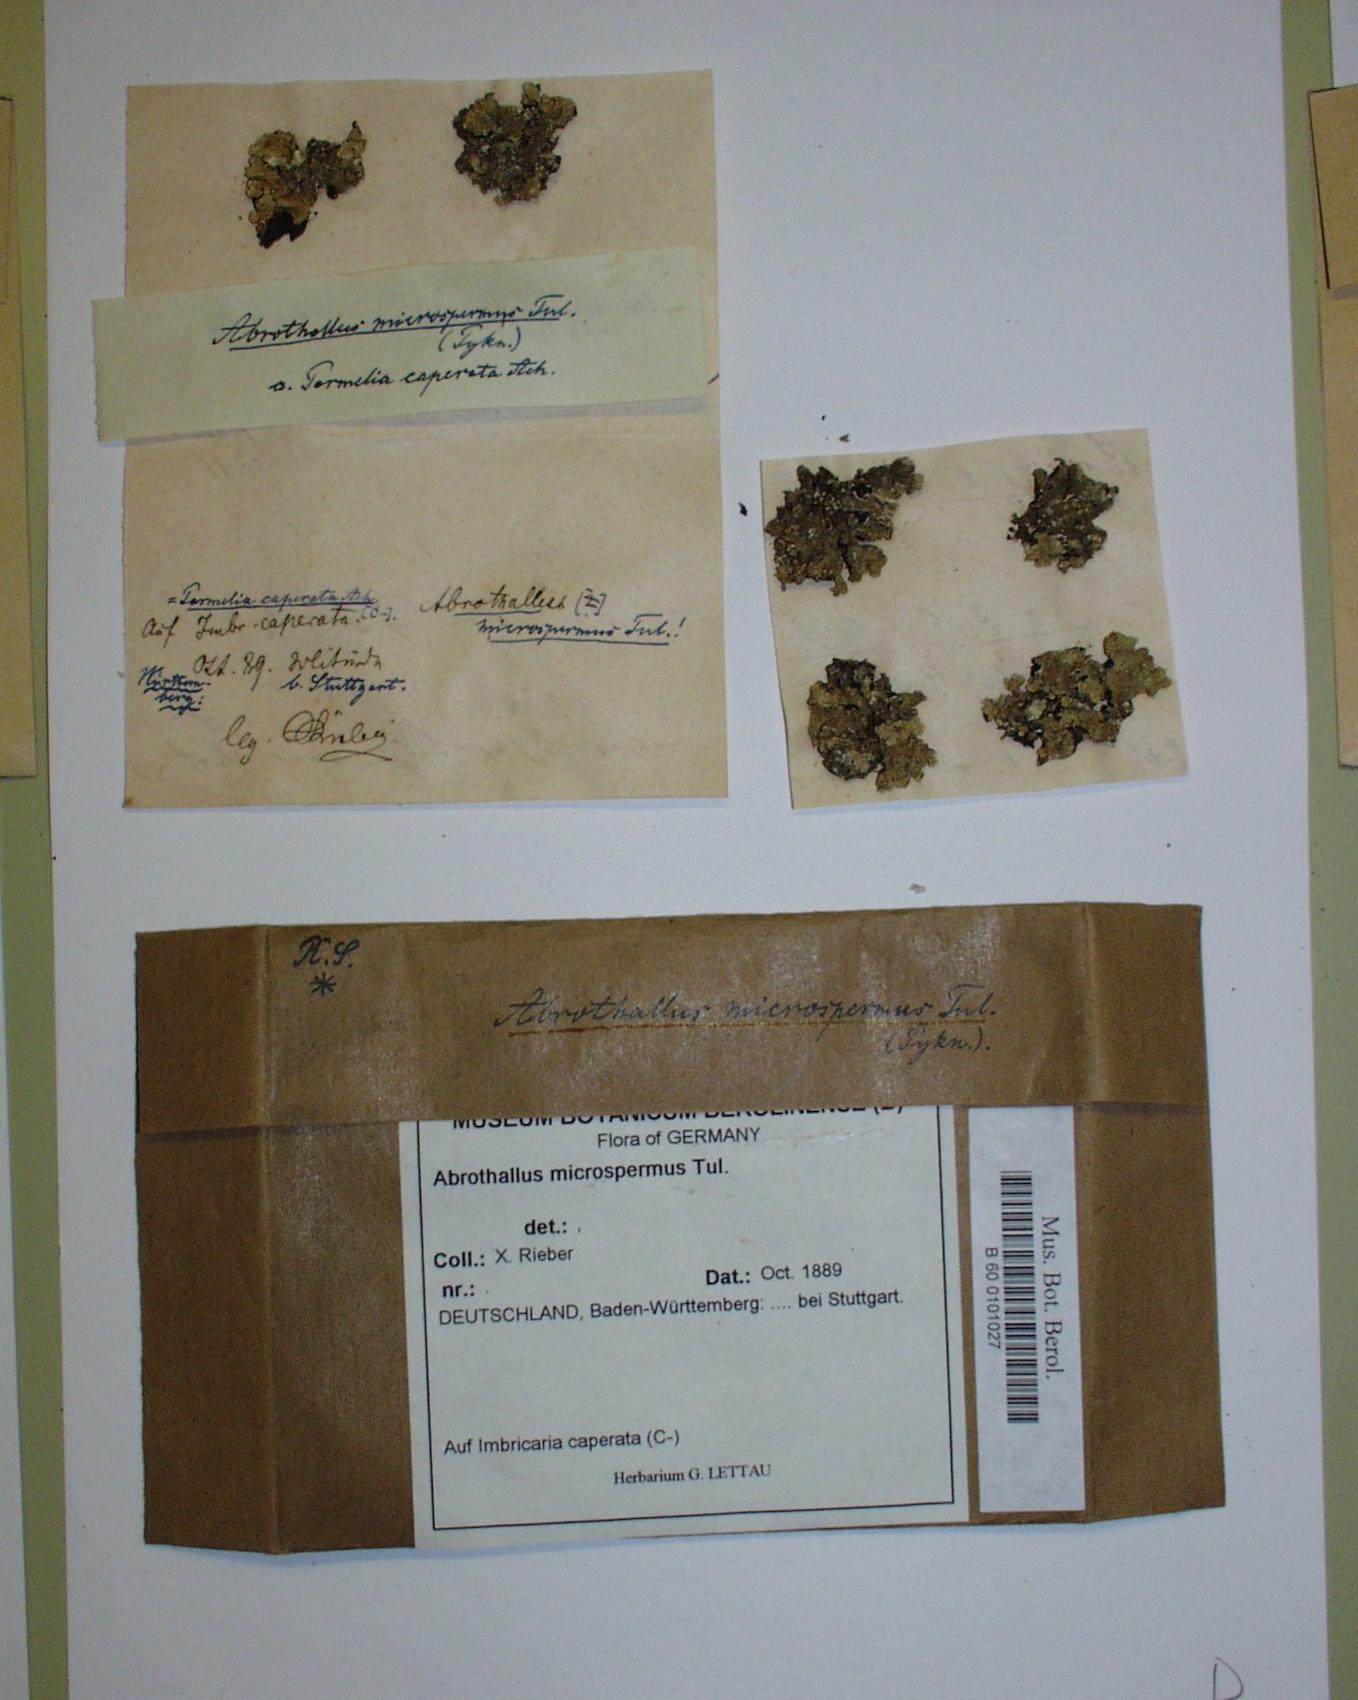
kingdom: Fungi
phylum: Ascomycota
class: Dothideomycetes
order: Abrothallales
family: Abrothallaceae
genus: Abrothallus
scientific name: Abrothallus microspermus
